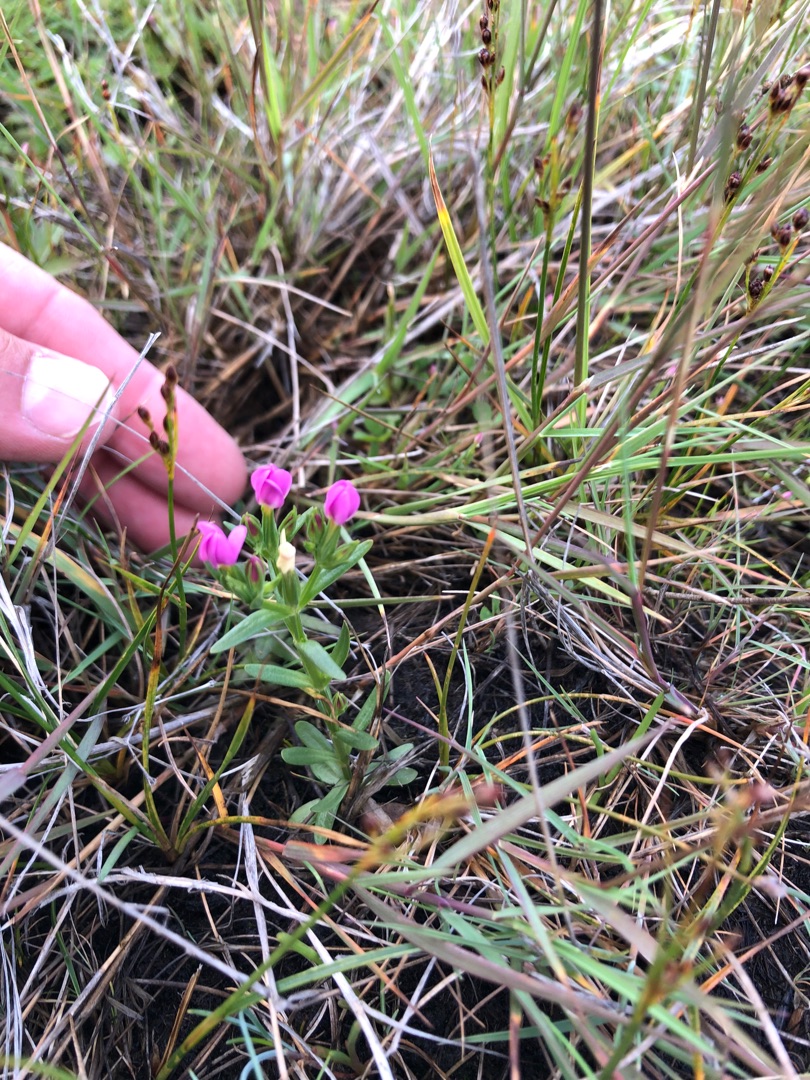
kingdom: Plantae
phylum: Tracheophyta
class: Magnoliopsida
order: Gentianales
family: Gentianaceae
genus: Centaurium
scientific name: Centaurium littorale
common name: Strand-tusindgylden
